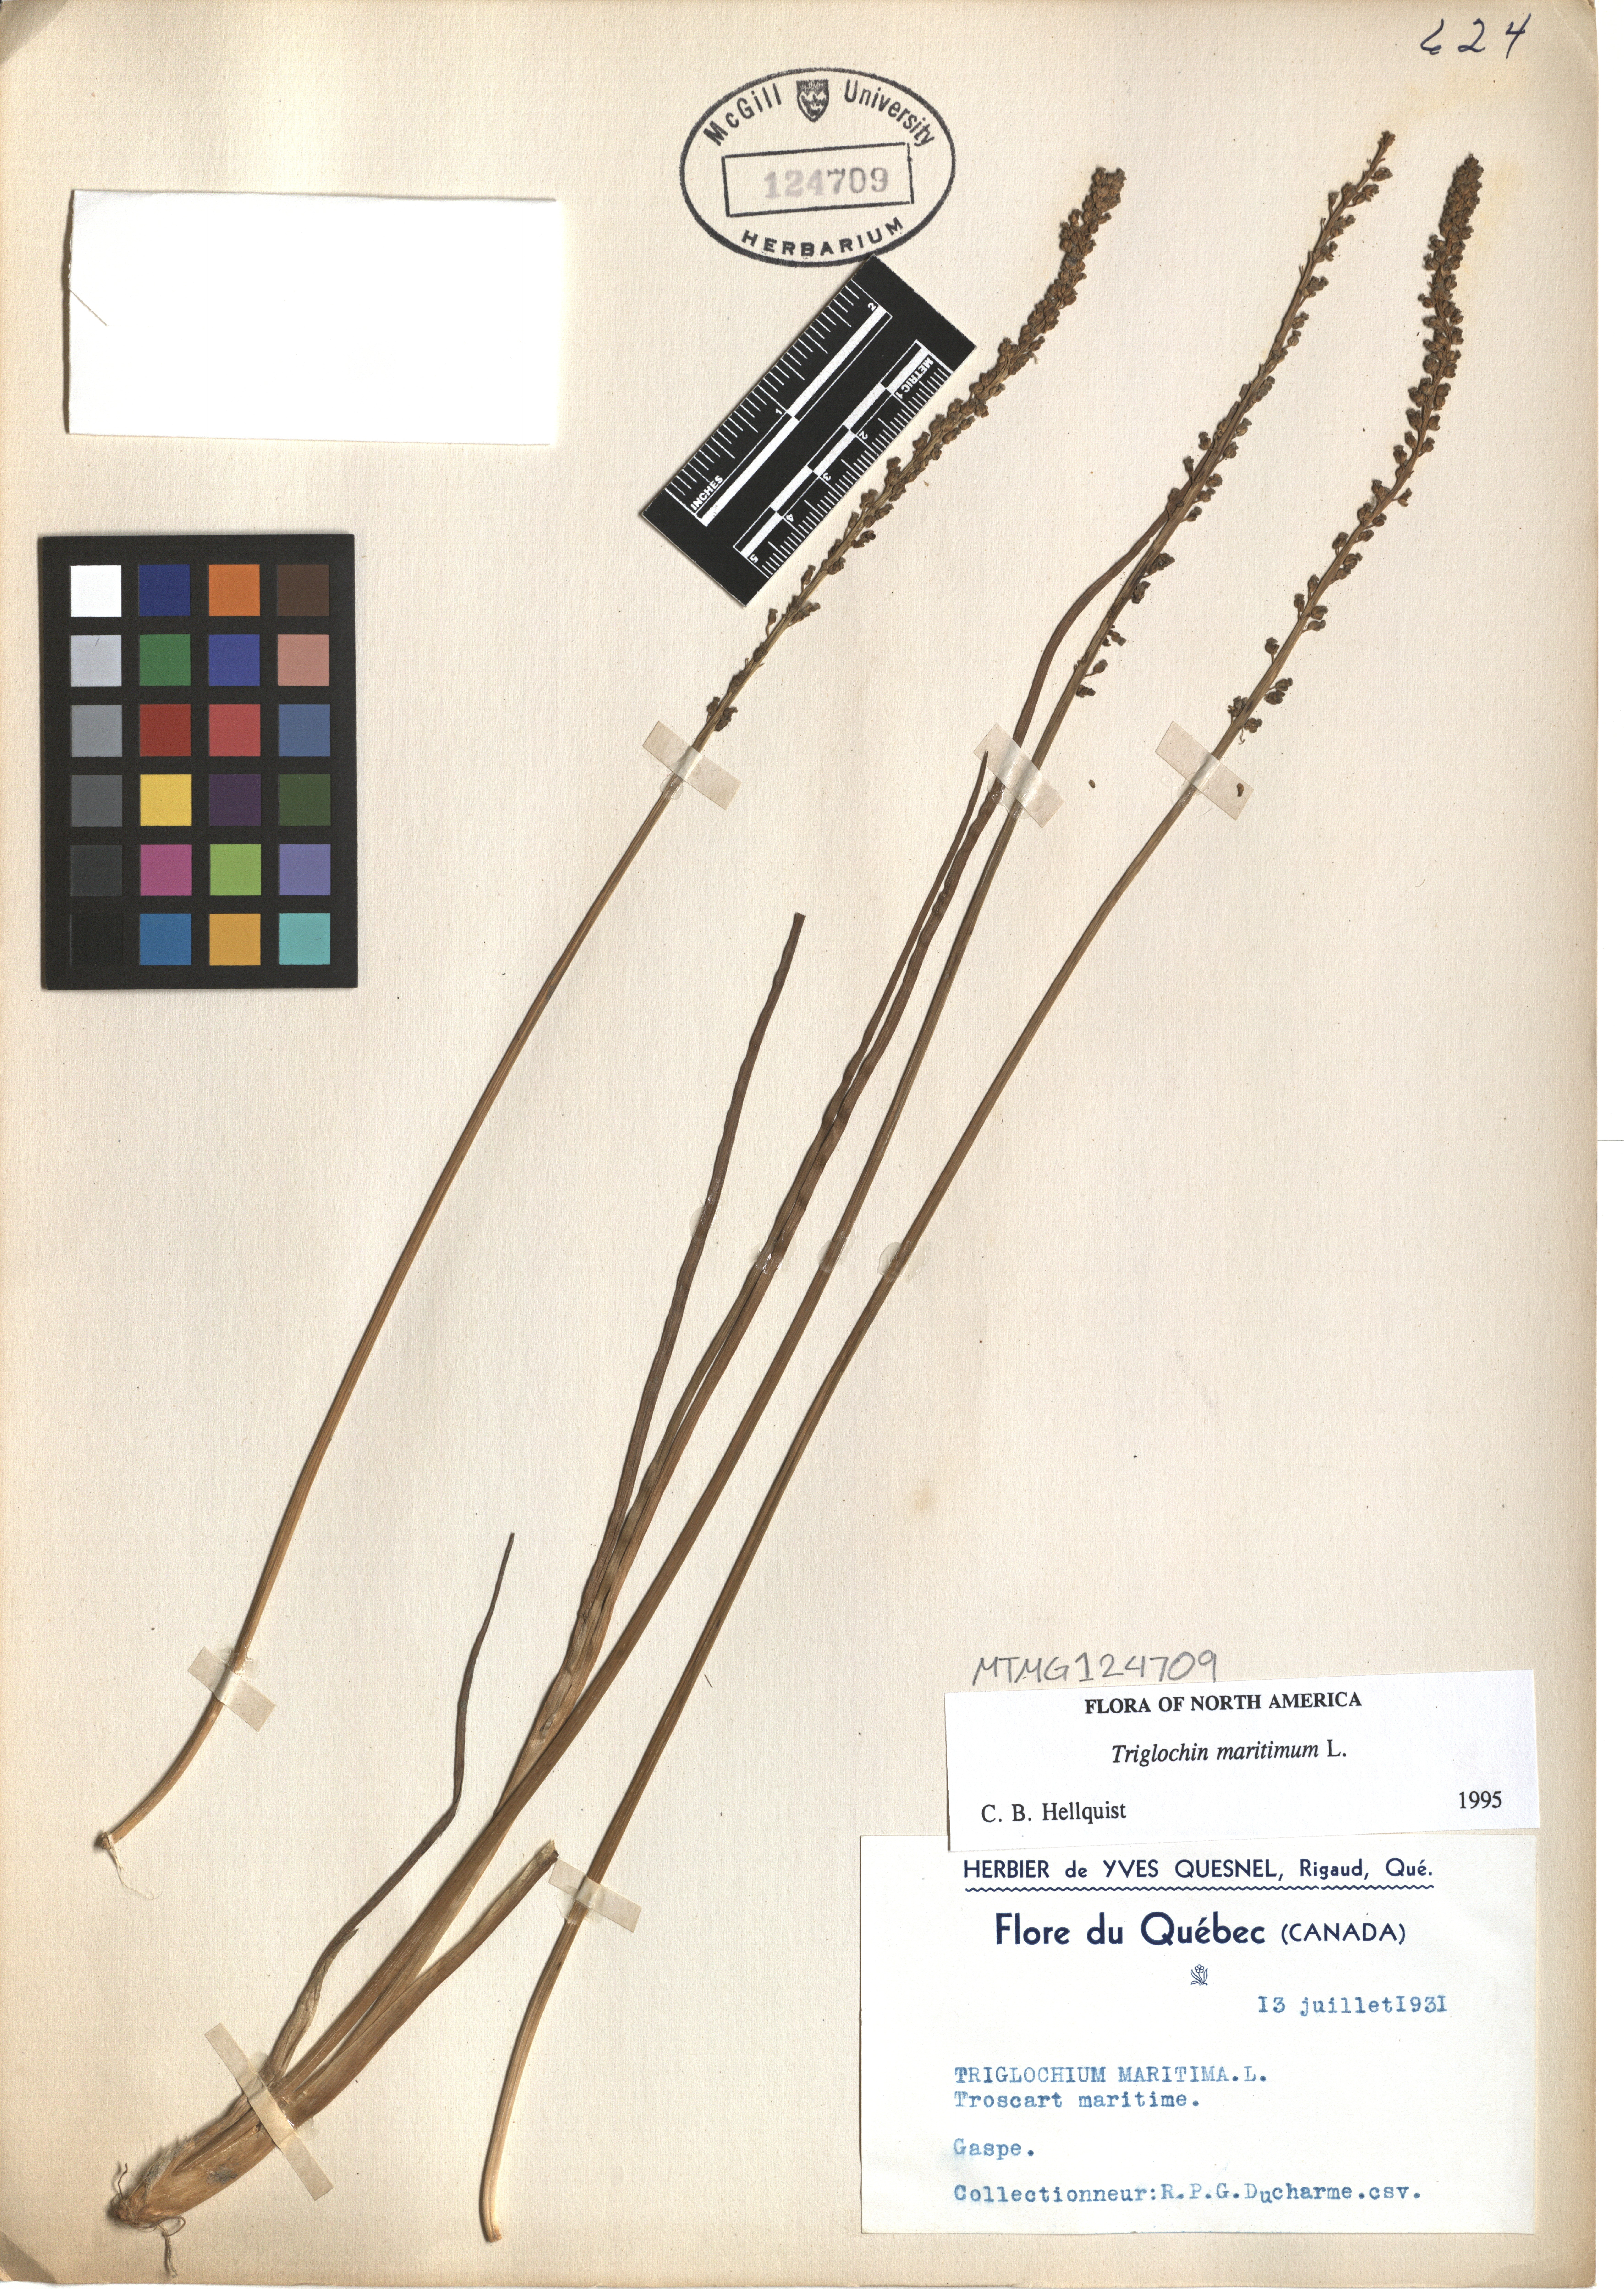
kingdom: Plantae
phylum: Tracheophyta
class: Liliopsida
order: Alismatales
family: Juncaginaceae
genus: Triglochin
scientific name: Triglochin maritima
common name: Sea arrowgrass
